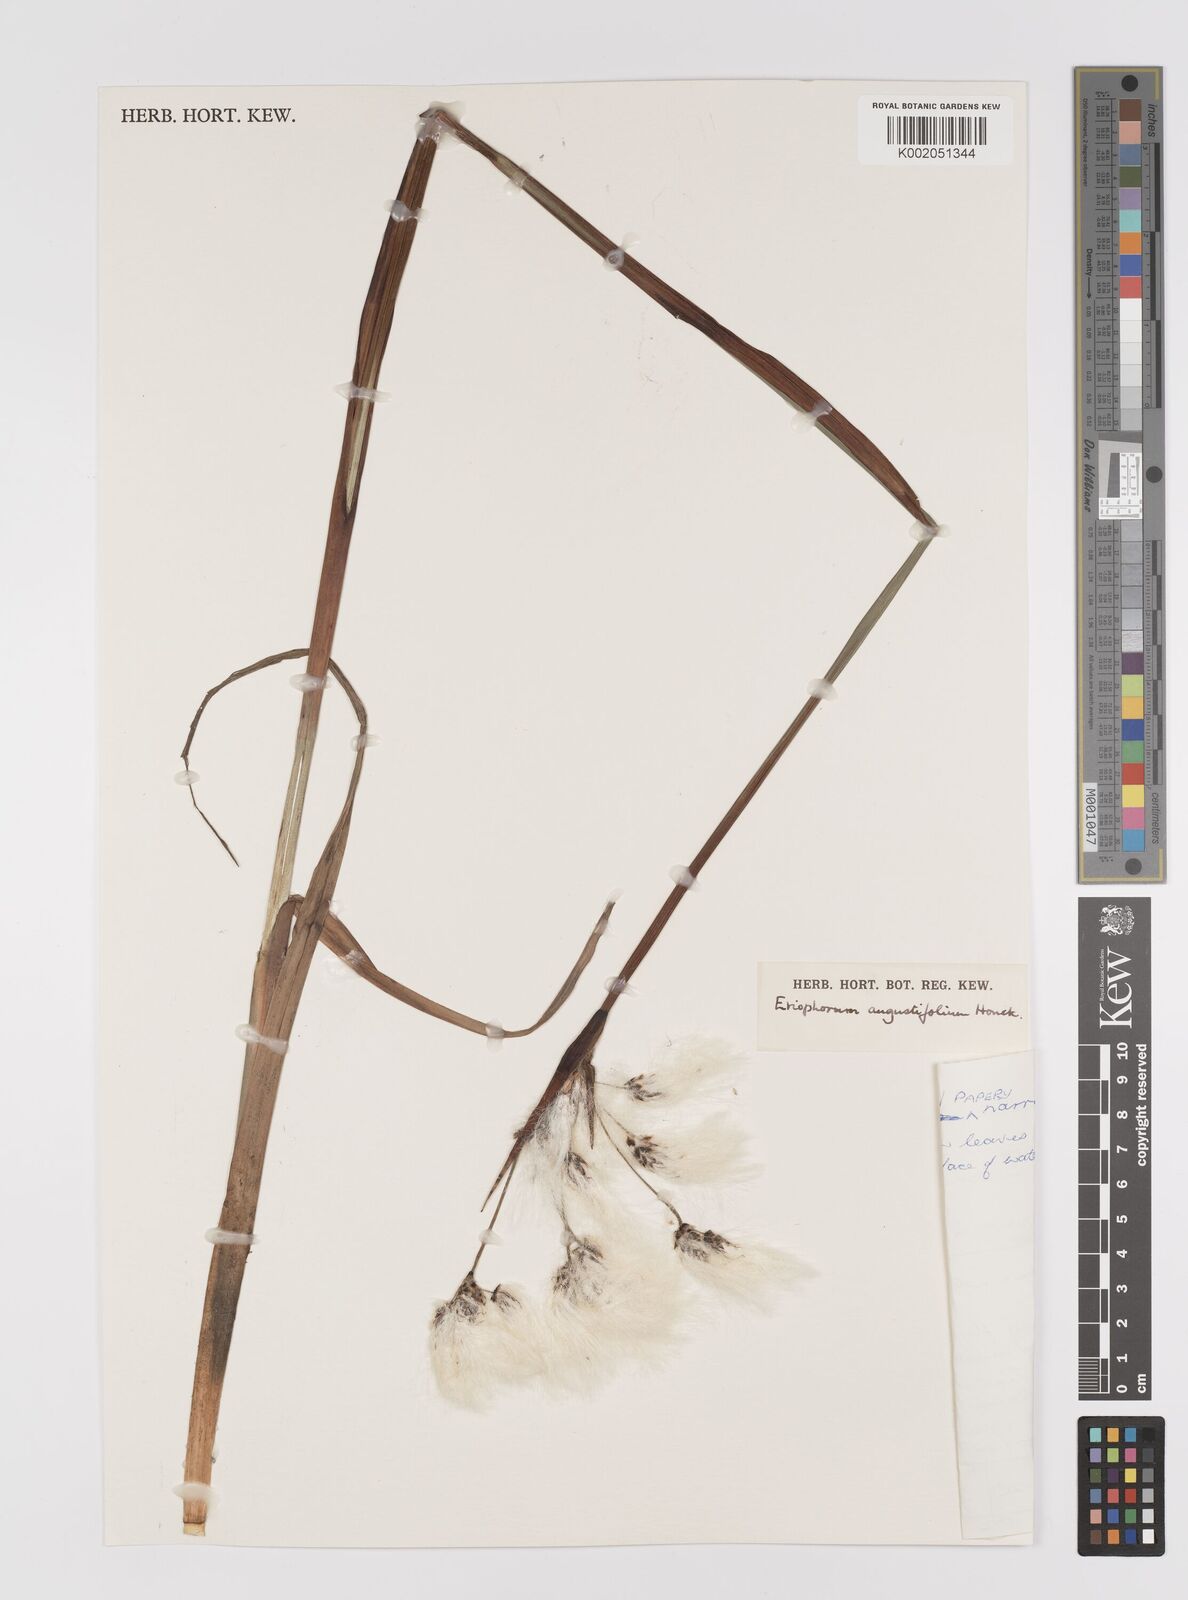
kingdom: Plantae
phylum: Tracheophyta
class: Liliopsida
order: Poales
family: Cyperaceae
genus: Eriophorum
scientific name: Eriophorum angustifolium
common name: Common cottongrass
